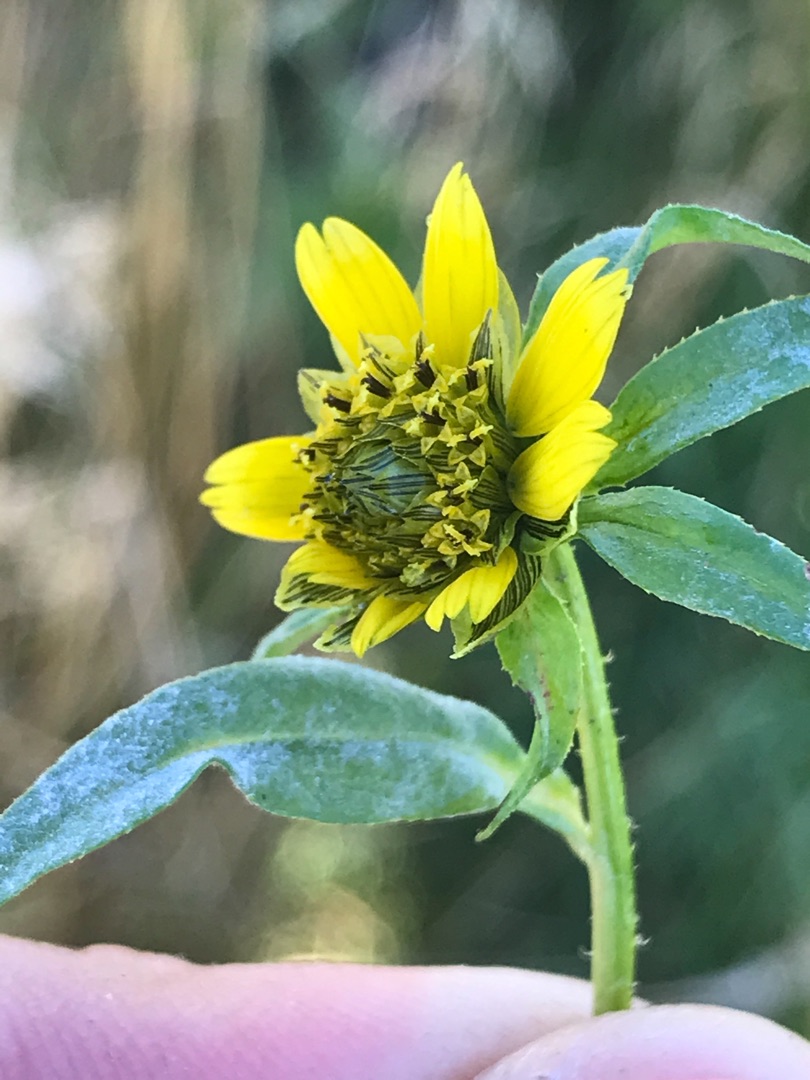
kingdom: Plantae
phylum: Tracheophyta
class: Magnoliopsida
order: Asterales
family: Asteraceae
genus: Bidens
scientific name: Bidens cernua
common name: Nikkende brøndsel
